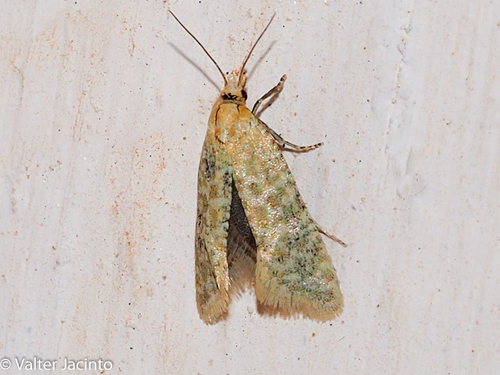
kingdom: Animalia
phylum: Arthropoda
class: Insecta
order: Lepidoptera
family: Tortricidae
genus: Aethes
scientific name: Aethes moribundana
